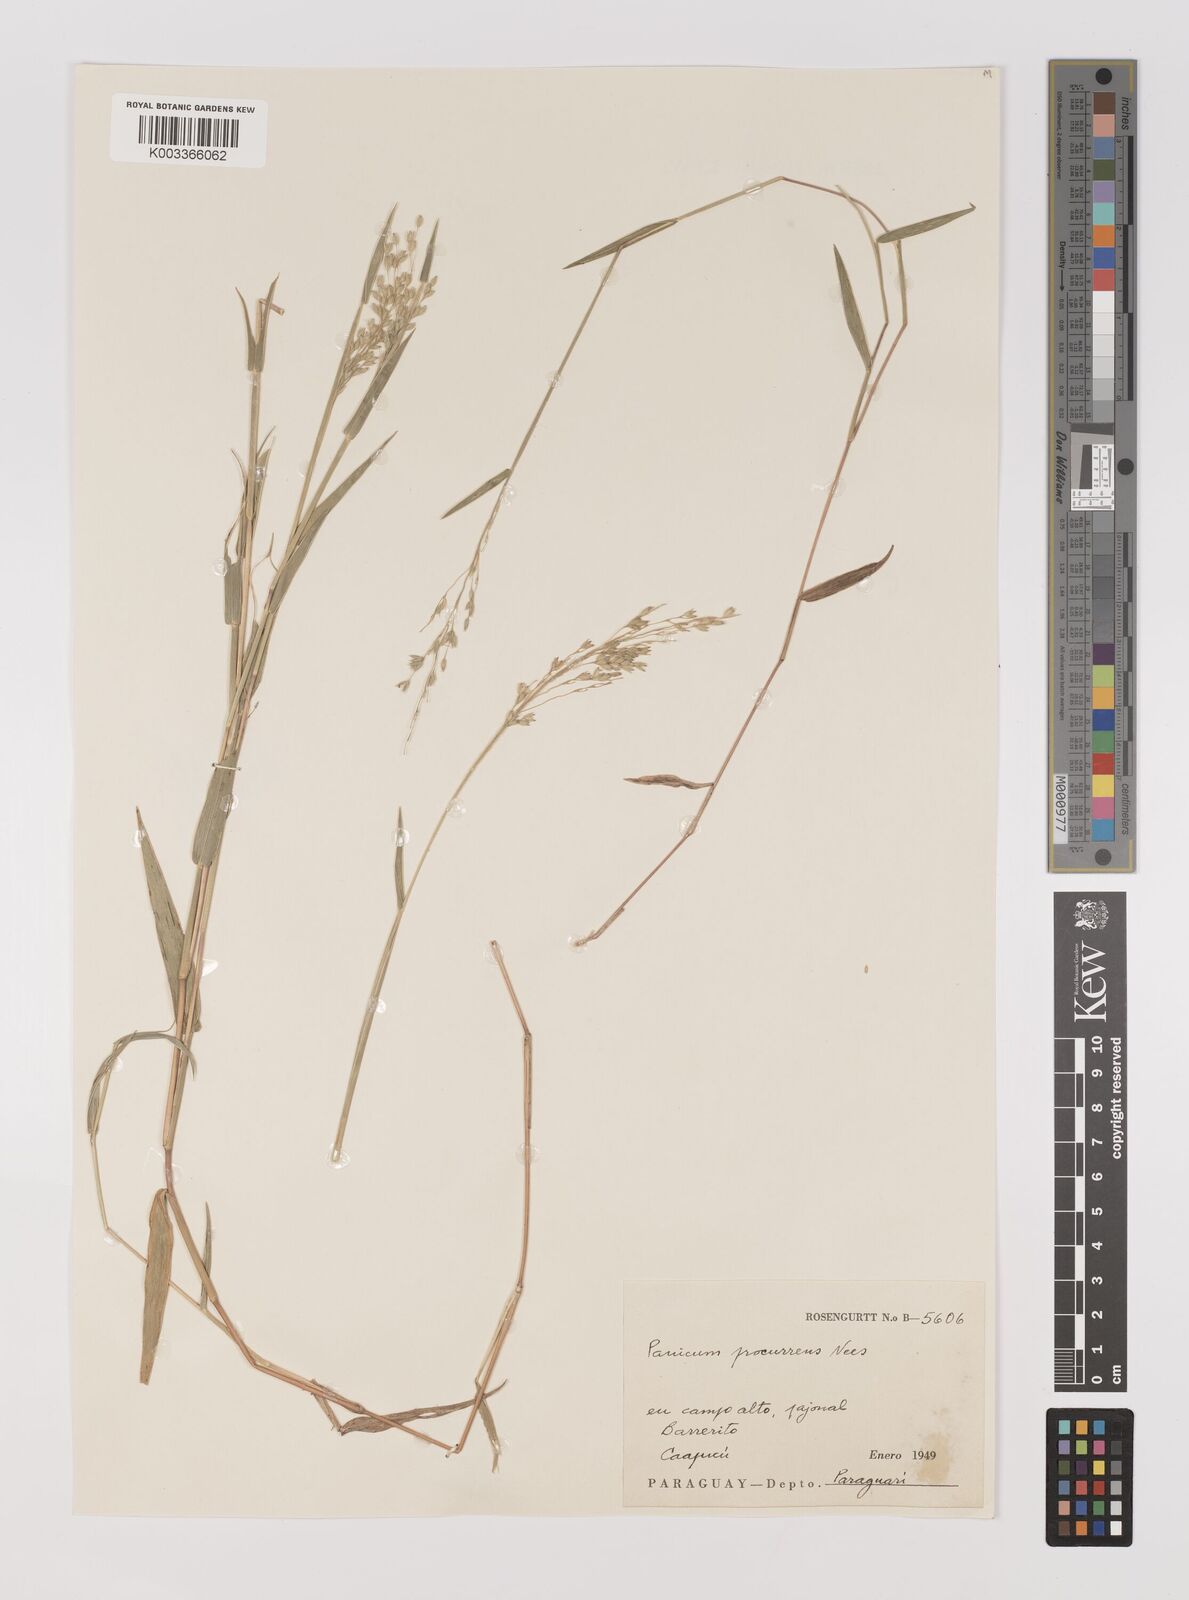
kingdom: Plantae
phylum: Tracheophyta
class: Liliopsida
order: Poales
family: Poaceae
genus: Oedochloa
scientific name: Oedochloa procurrens
